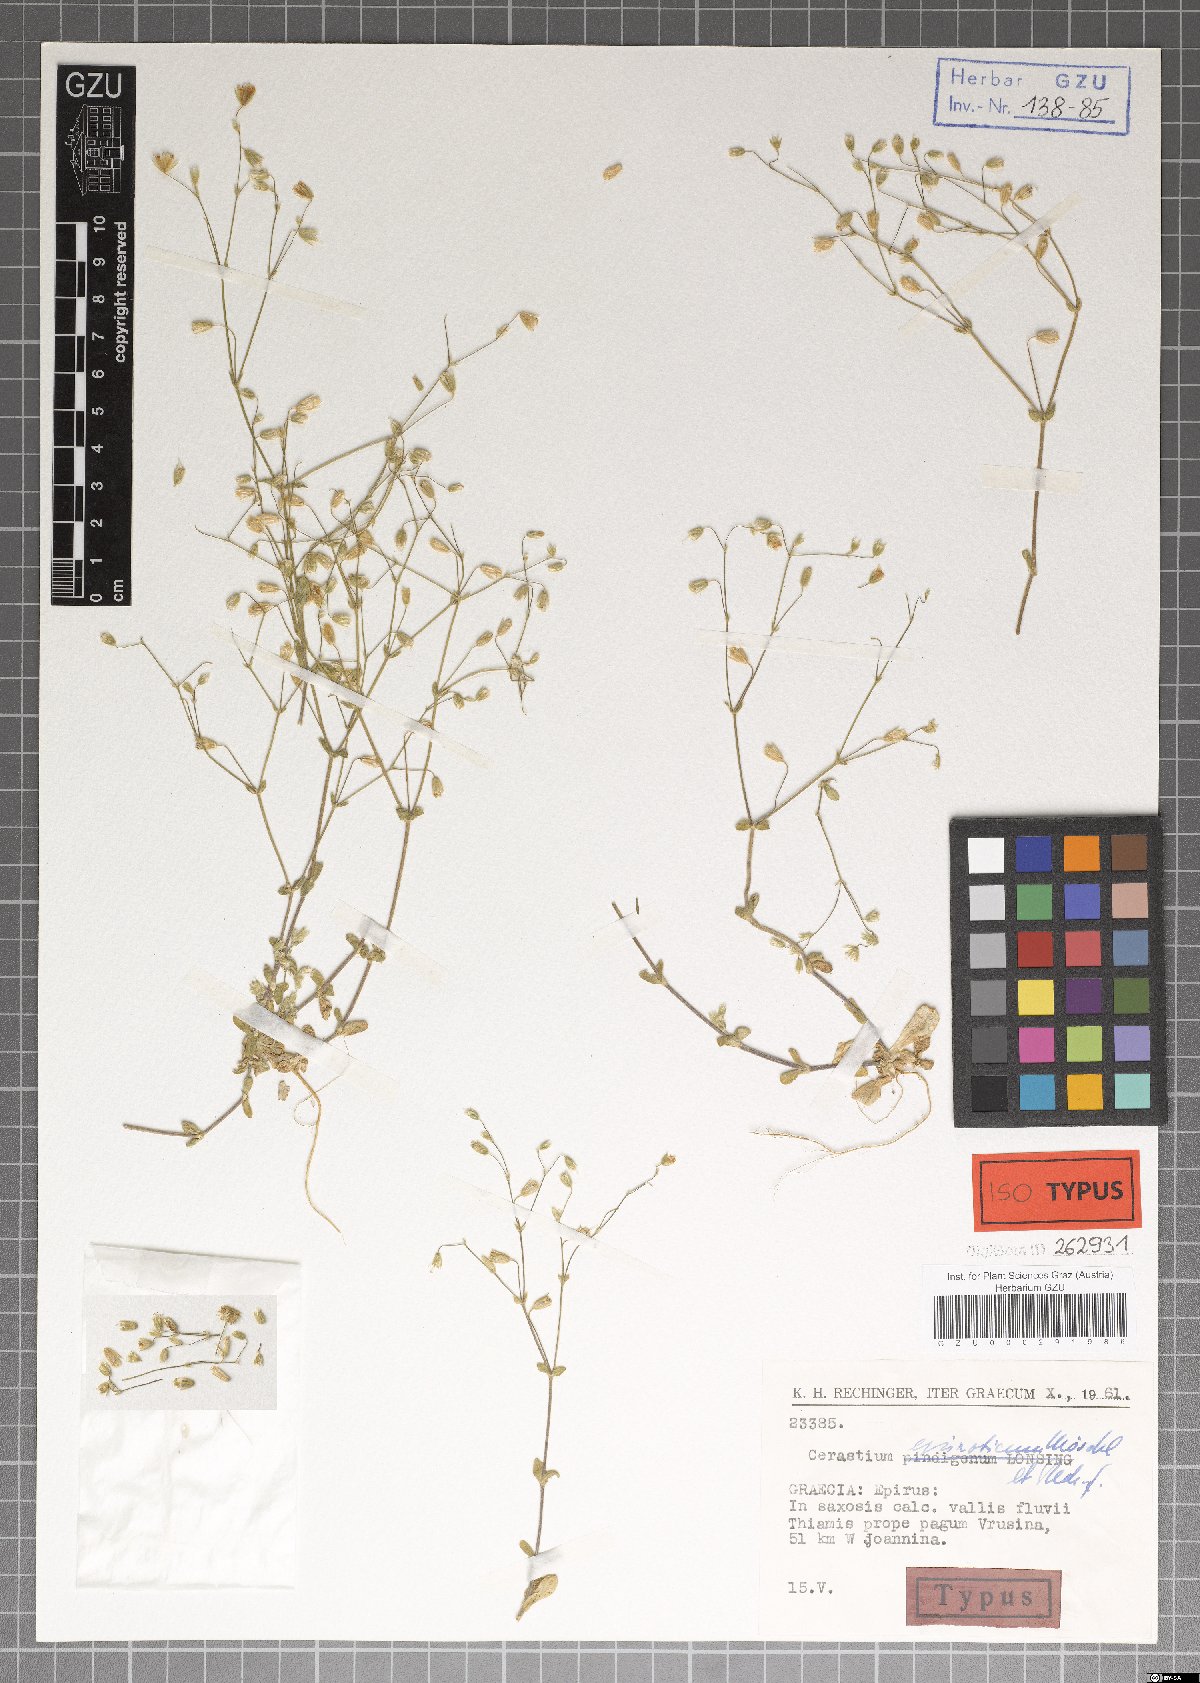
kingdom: Plantae
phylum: Tracheophyta
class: Magnoliopsida
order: Caryophyllales
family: Caryophyllaceae
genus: Cerastium
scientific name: Cerastium tenoreanum
